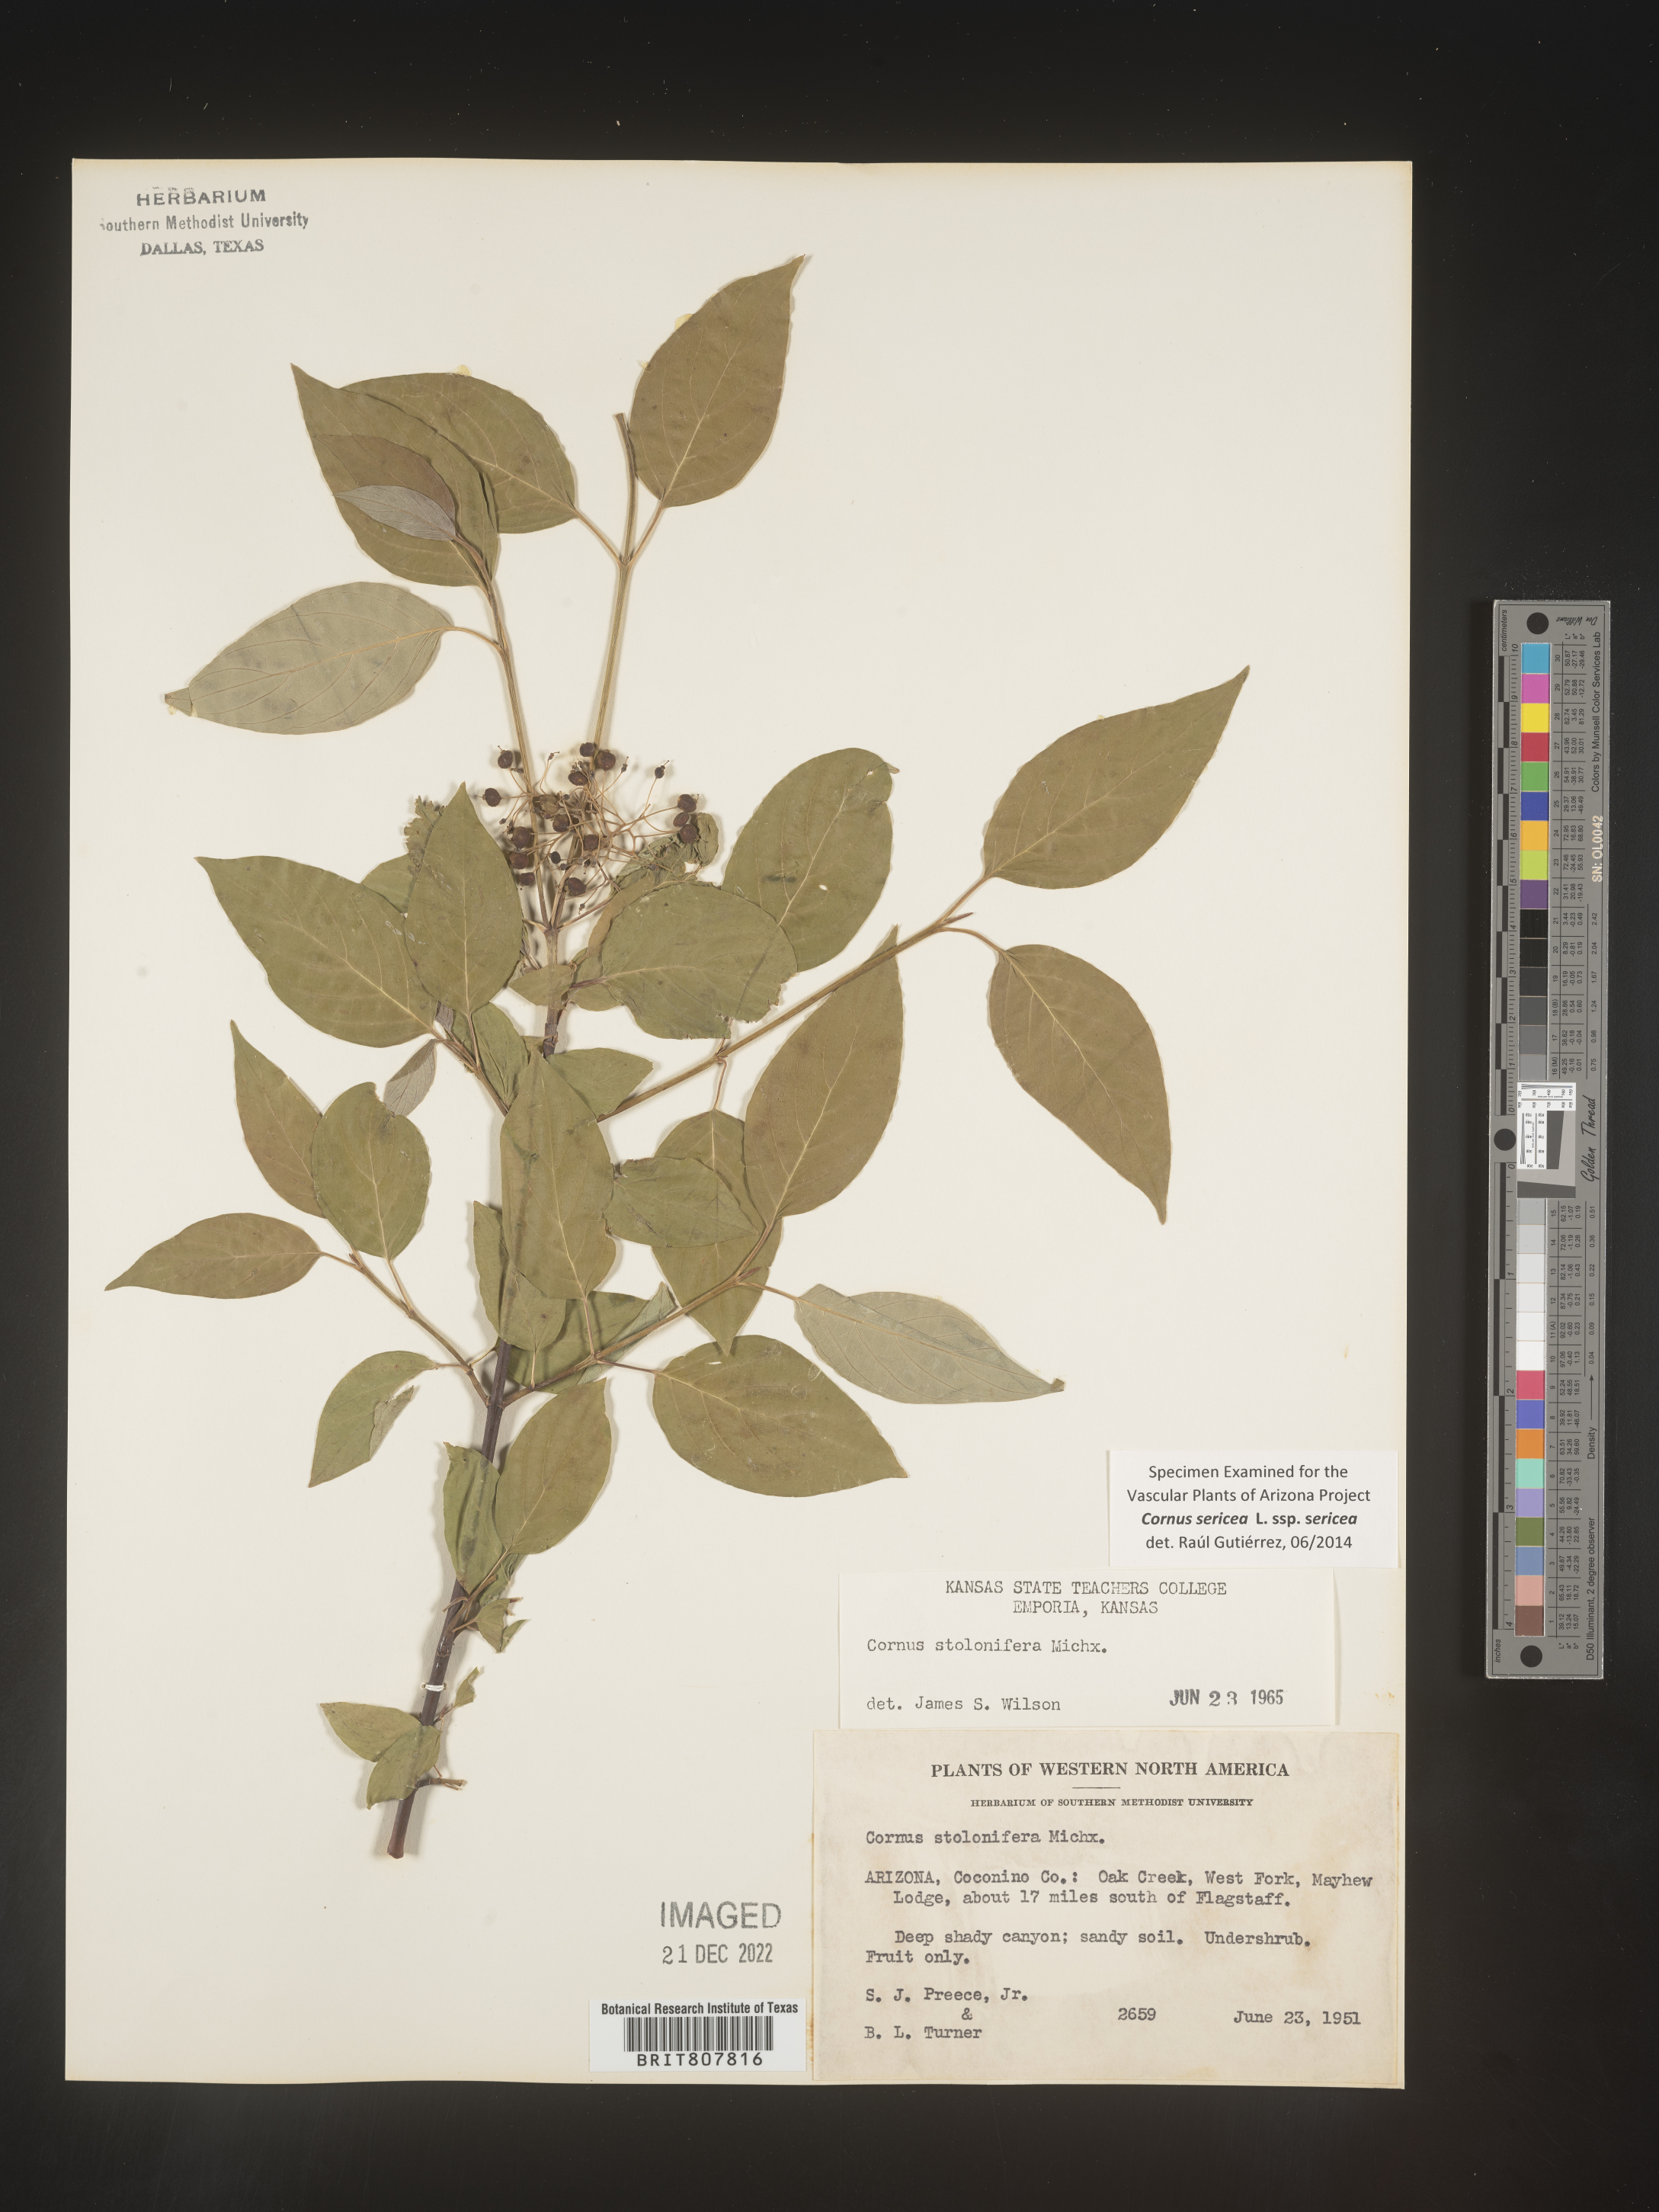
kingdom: Plantae
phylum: Tracheophyta
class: Magnoliopsida
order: Cornales
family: Cornaceae
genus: Cornus
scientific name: Cornus
